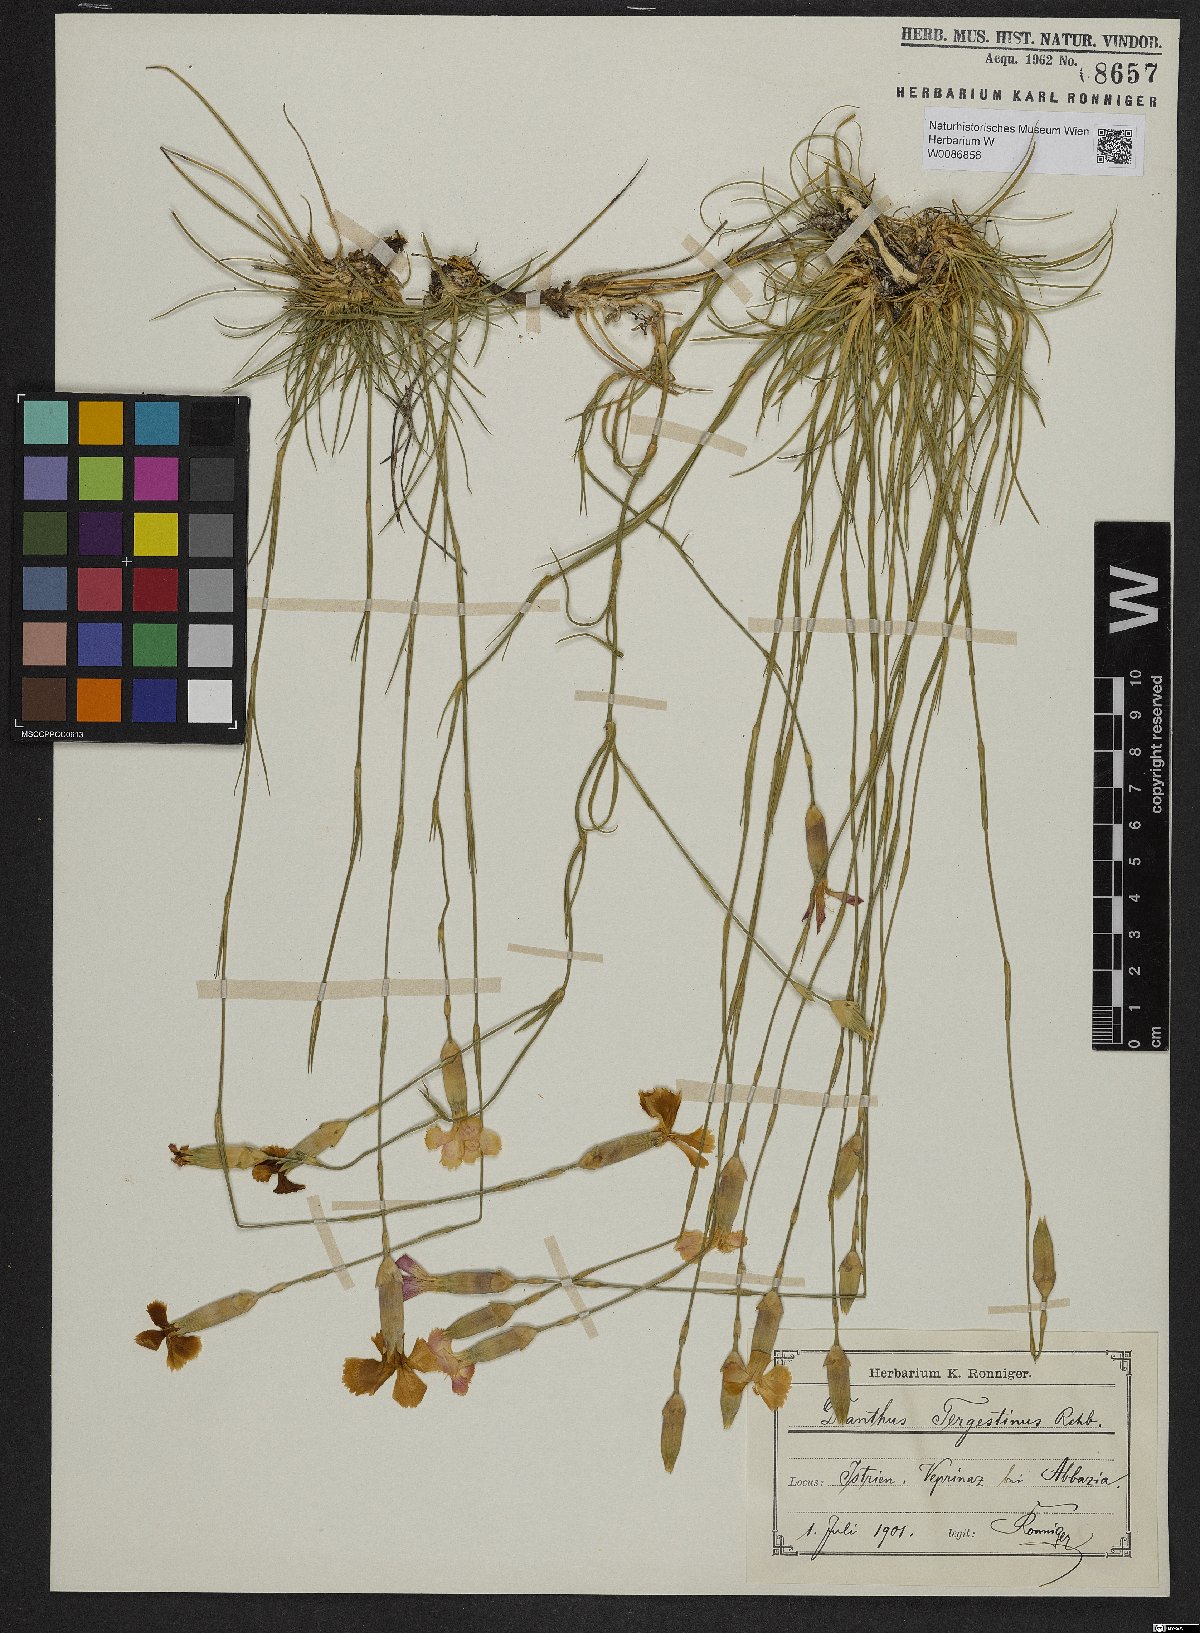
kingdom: Plantae
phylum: Tracheophyta
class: Magnoliopsida
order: Caryophyllales
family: Caryophyllaceae
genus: Dianthus
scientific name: Dianthus sylvestris
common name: Wood pink
